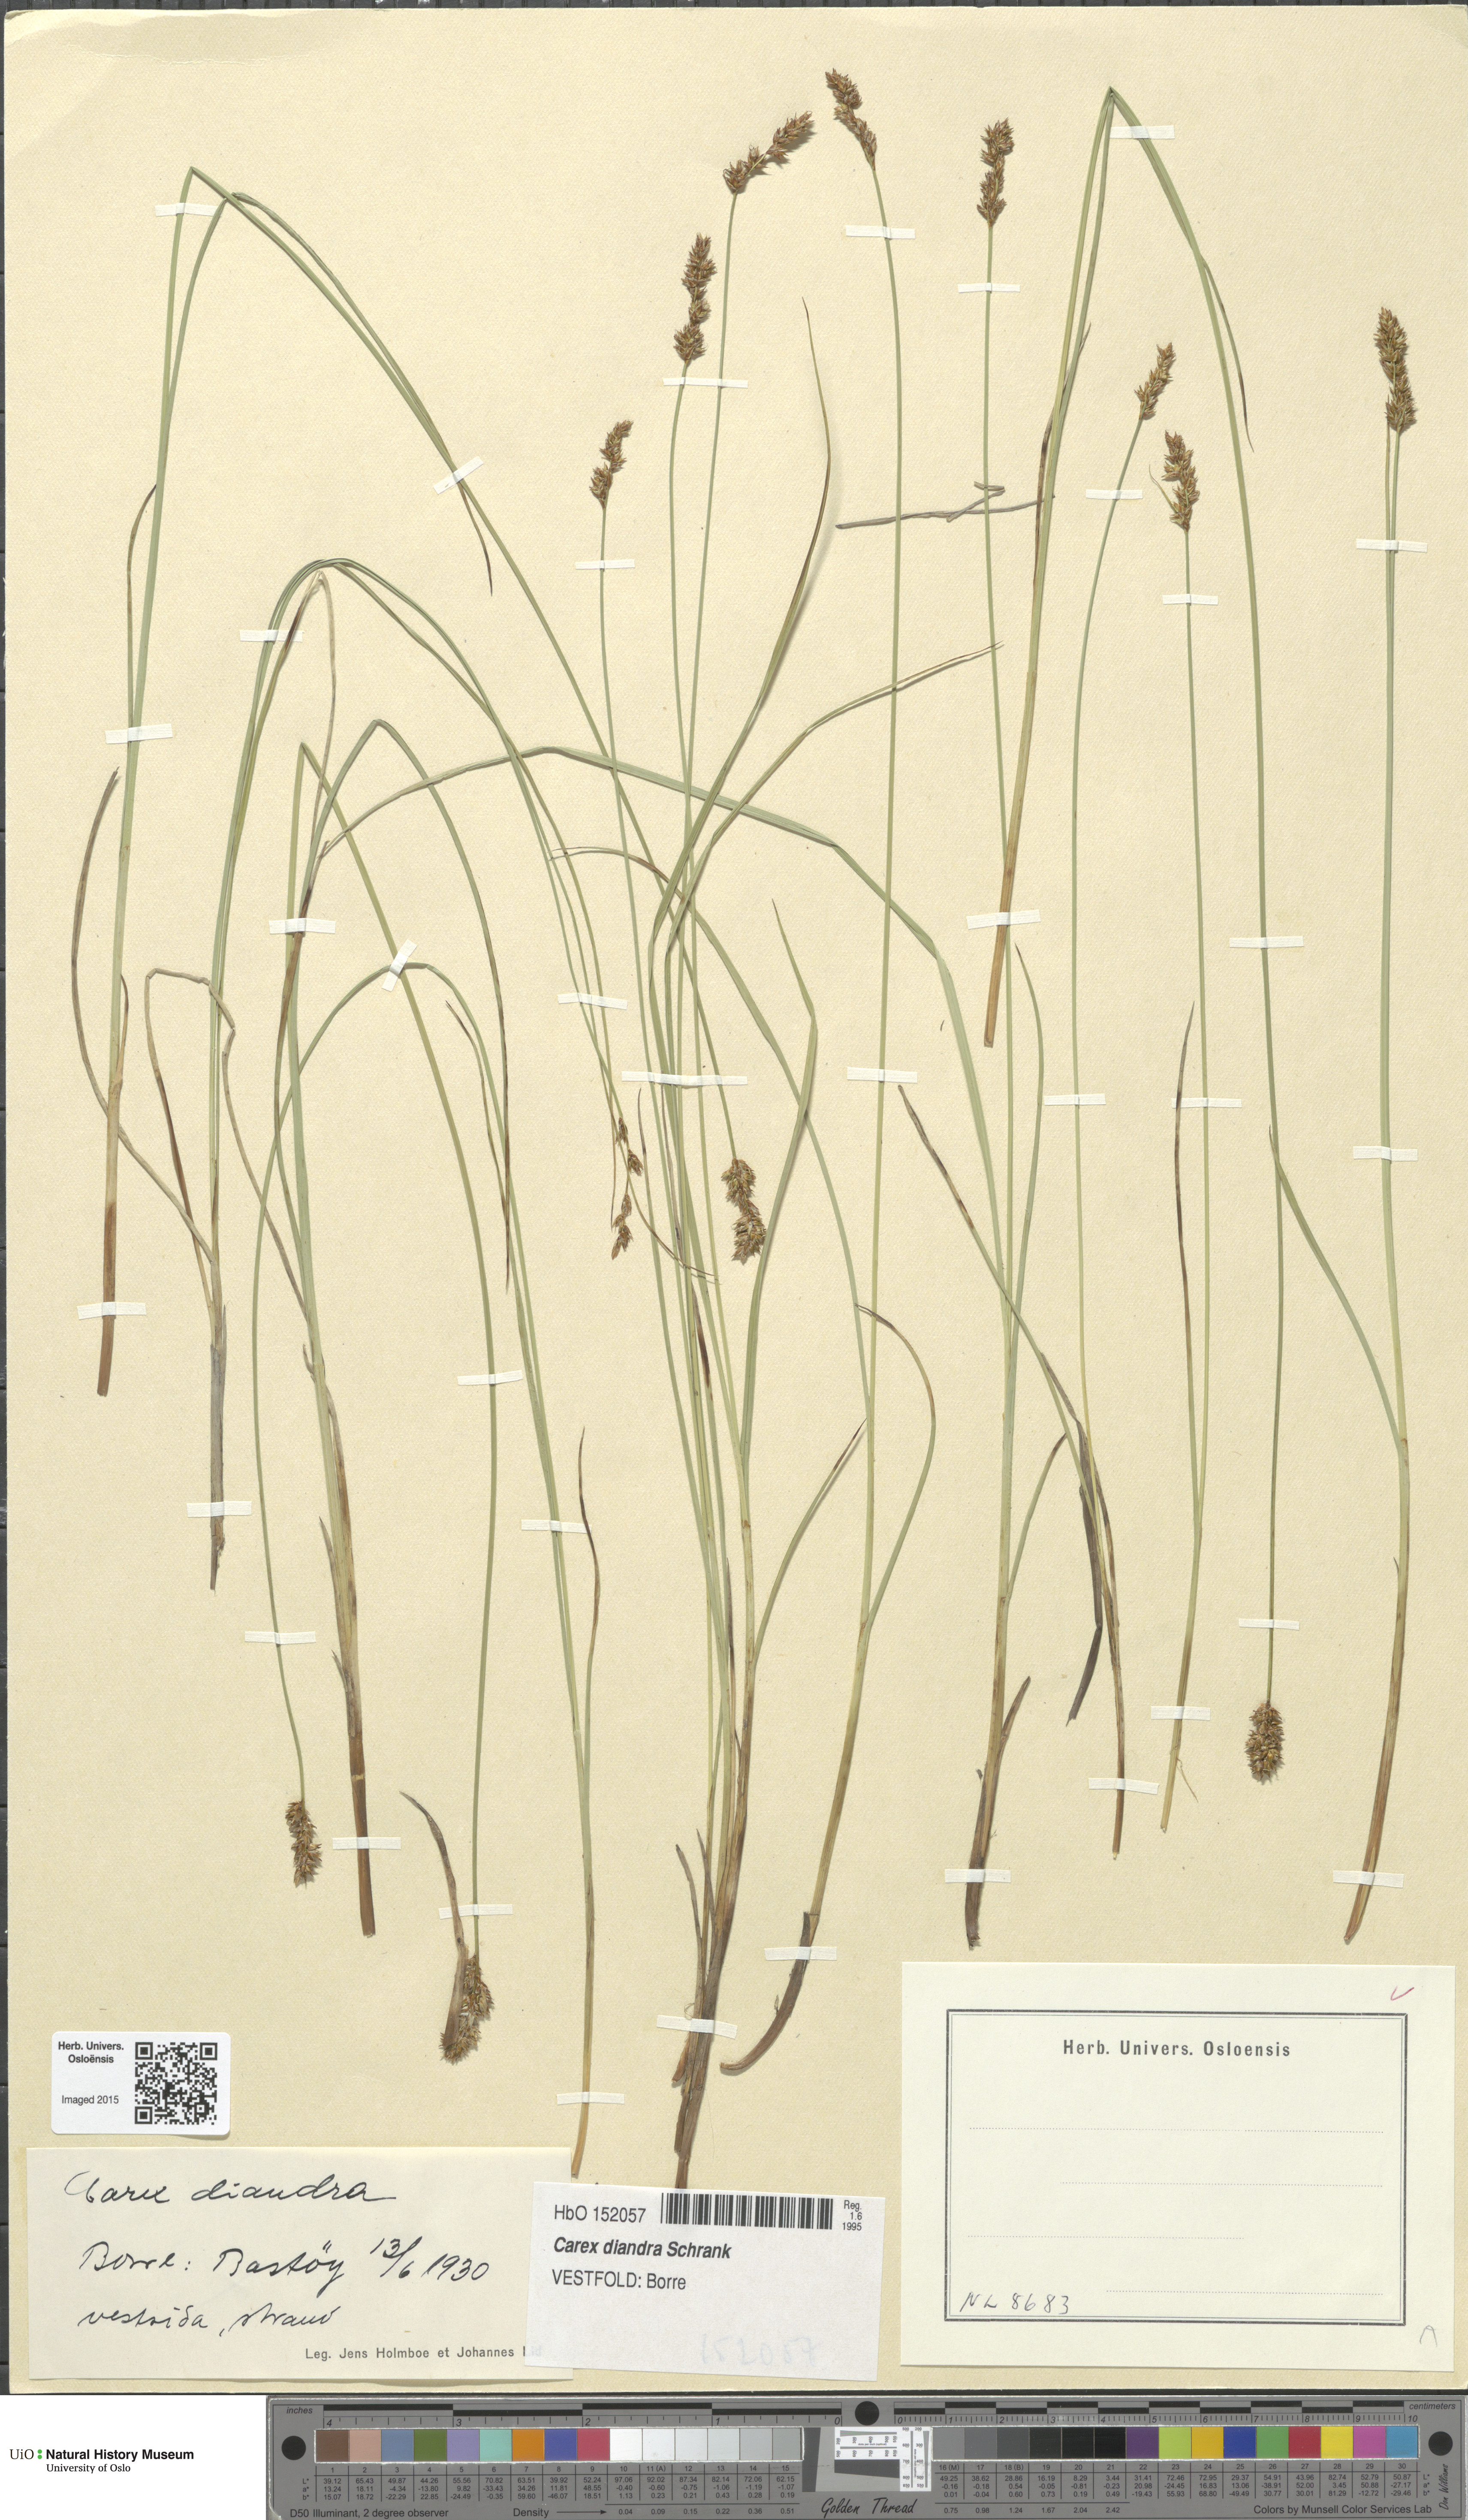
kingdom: Plantae
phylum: Tracheophyta
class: Liliopsida
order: Poales
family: Cyperaceae
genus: Carex
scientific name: Carex diandra
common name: Lesser tussock-sedge
